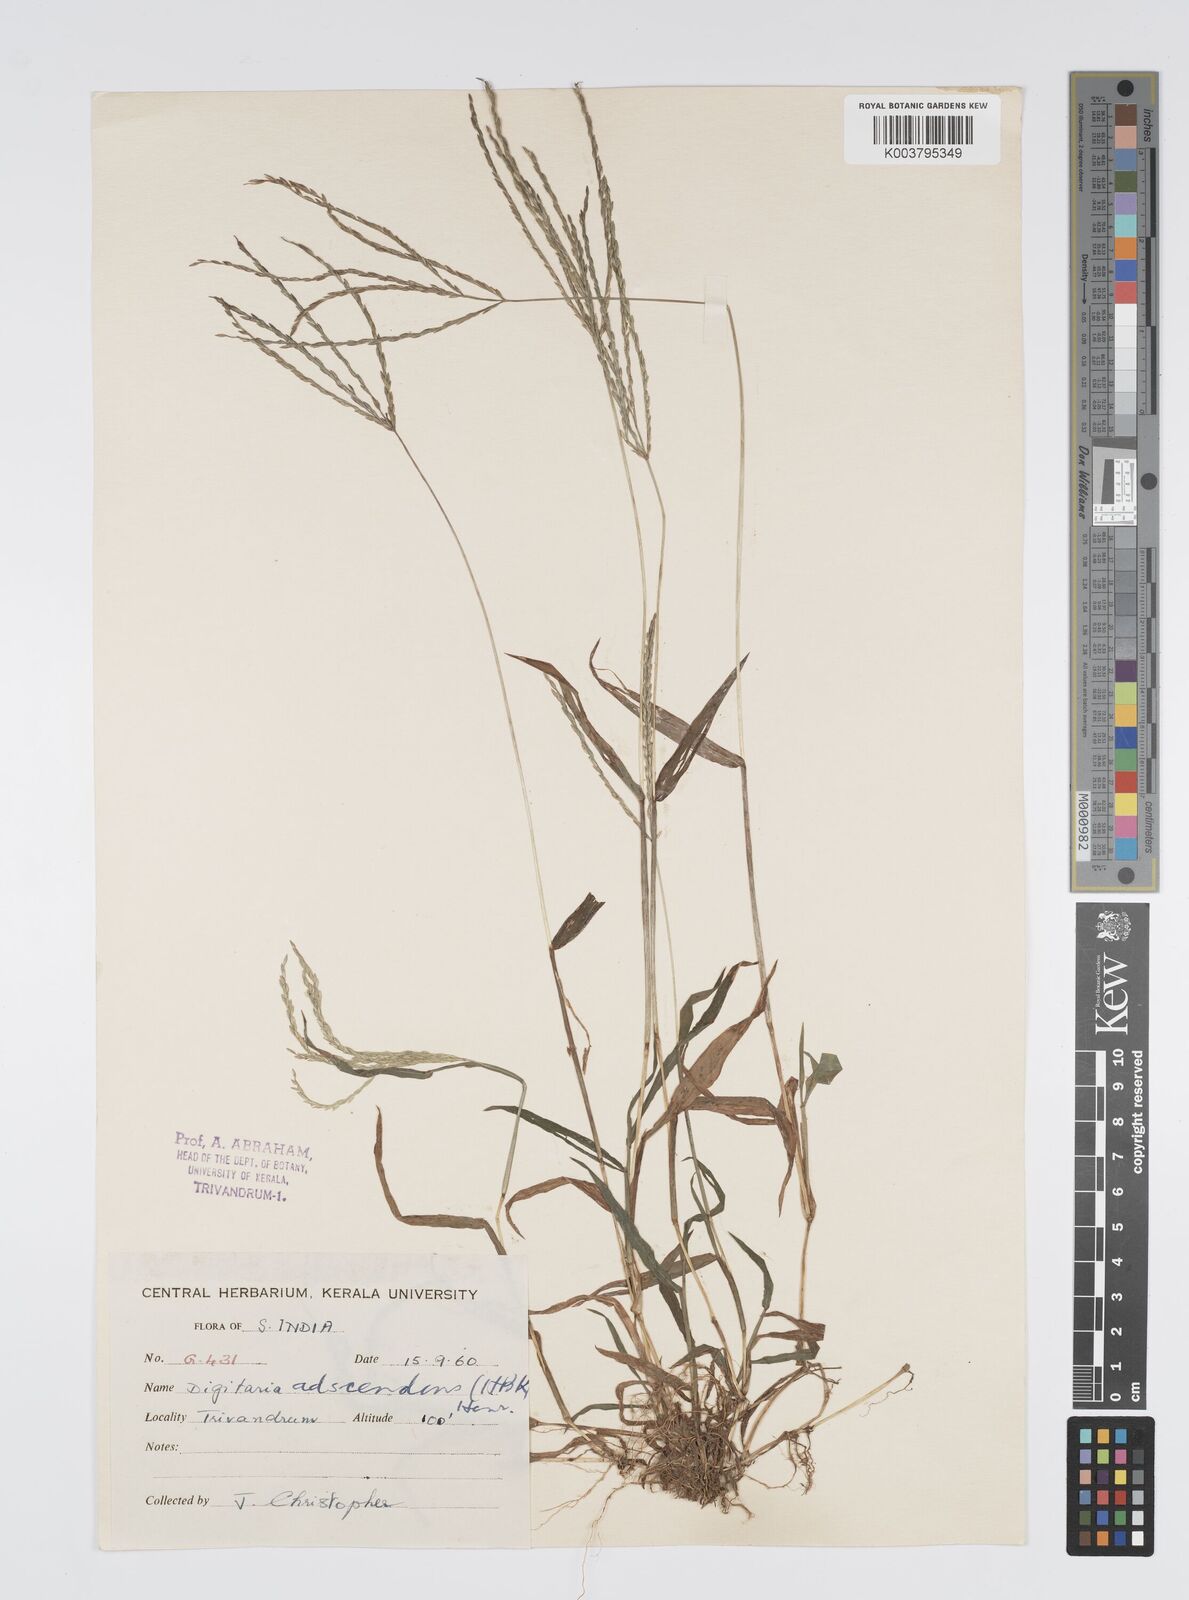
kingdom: Plantae
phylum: Tracheophyta
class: Liliopsida
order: Poales
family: Poaceae
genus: Digitaria
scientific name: Digitaria ciliaris
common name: Tropical finger-grass
